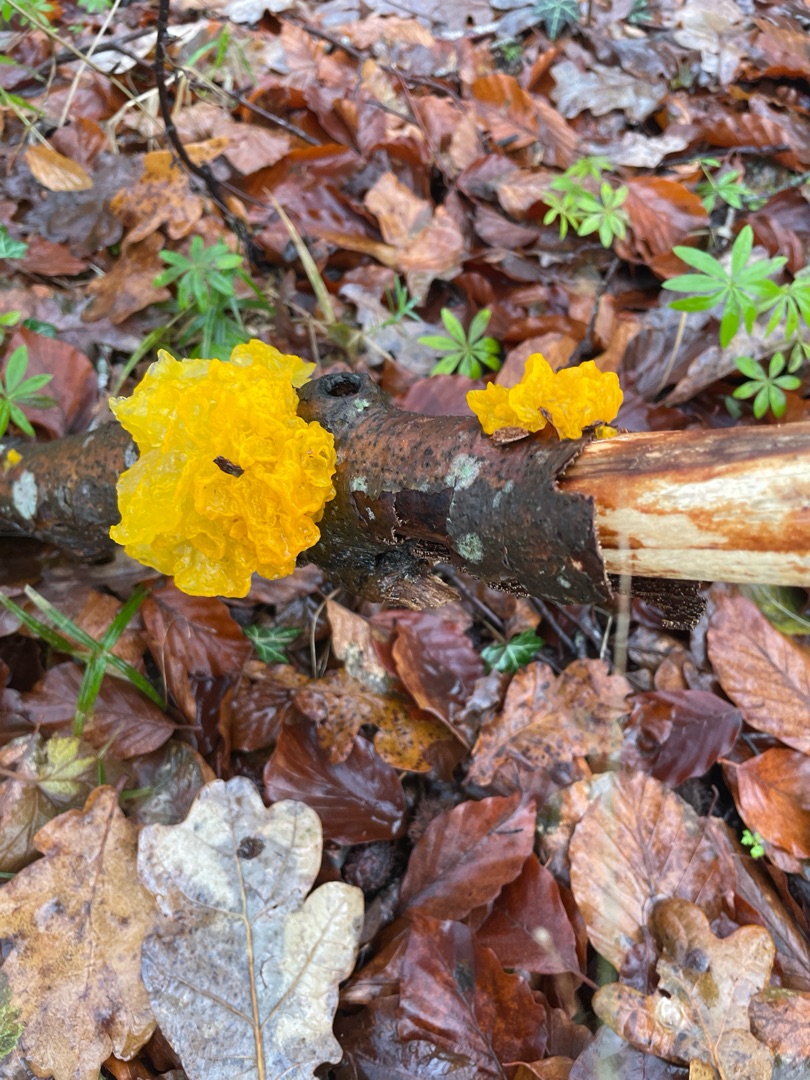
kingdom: Fungi
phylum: Basidiomycota
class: Tremellomycetes
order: Tremellales
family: Tremellaceae
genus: Tremella
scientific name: Tremella mesenterica
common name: Gul bævresvamp
